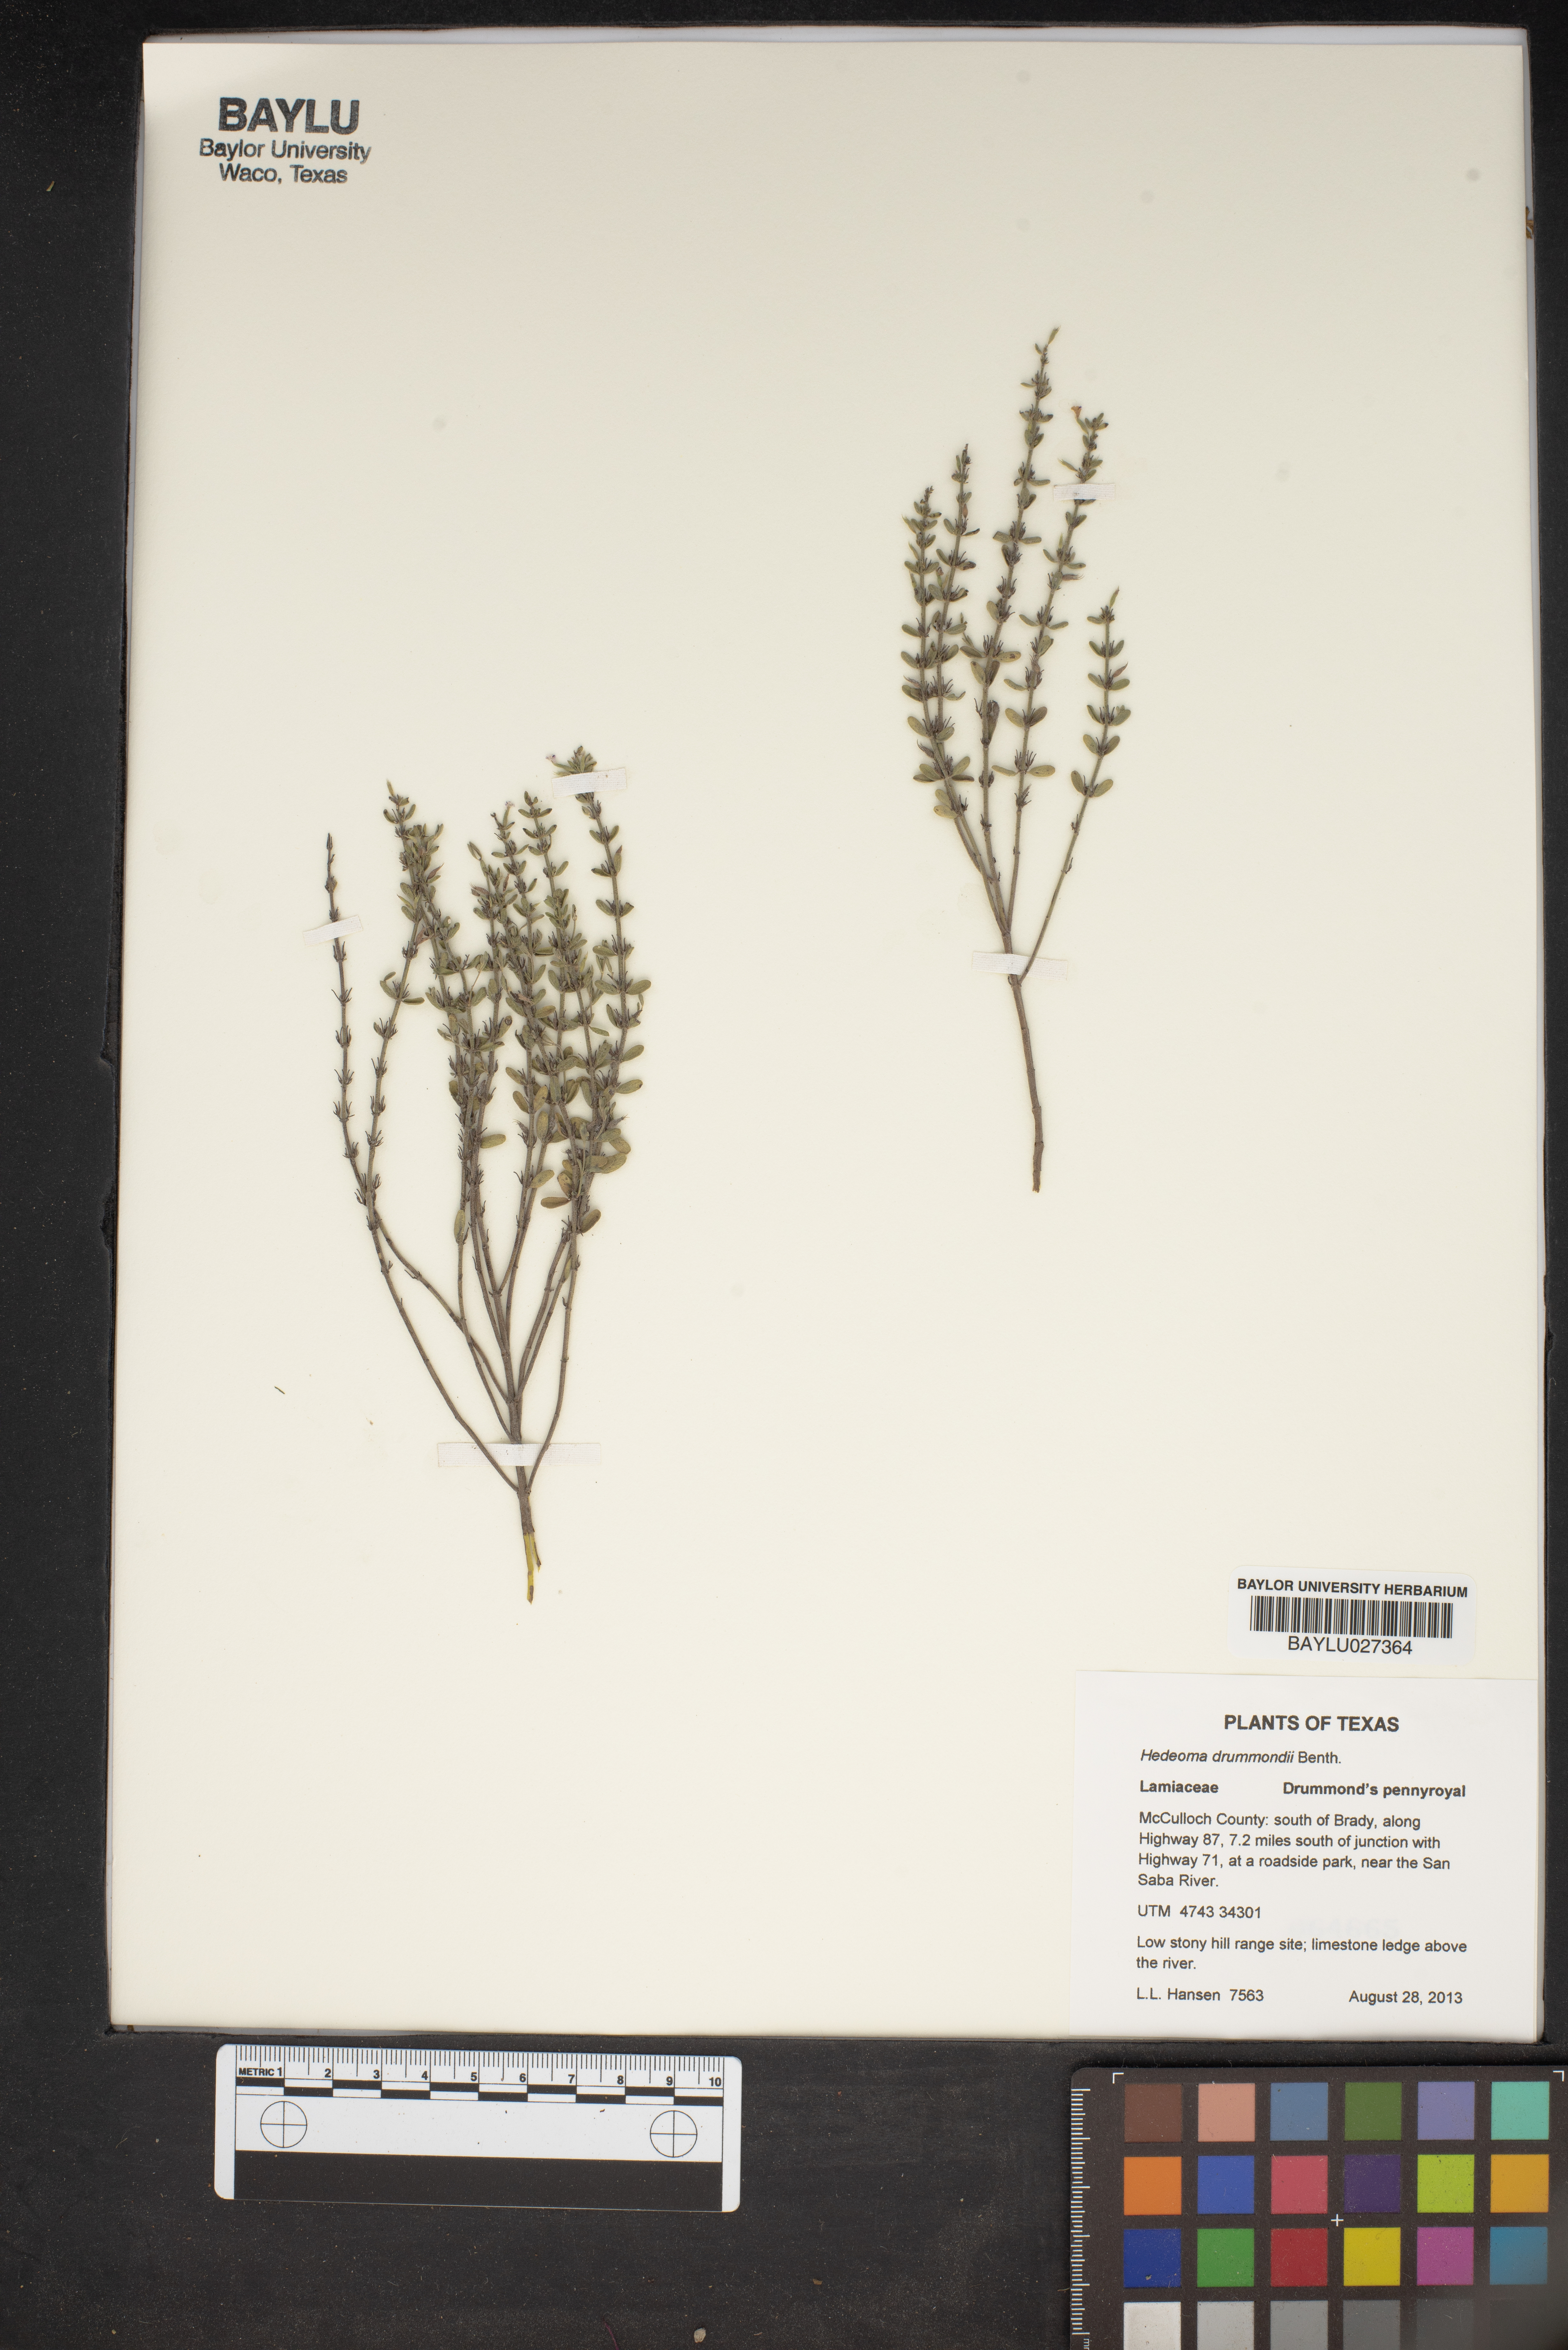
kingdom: Plantae
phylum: Tracheophyta
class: Magnoliopsida
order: Lamiales
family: Lamiaceae
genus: Hedeoma
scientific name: Hedeoma drummondii
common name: New mexico pennyroyal
